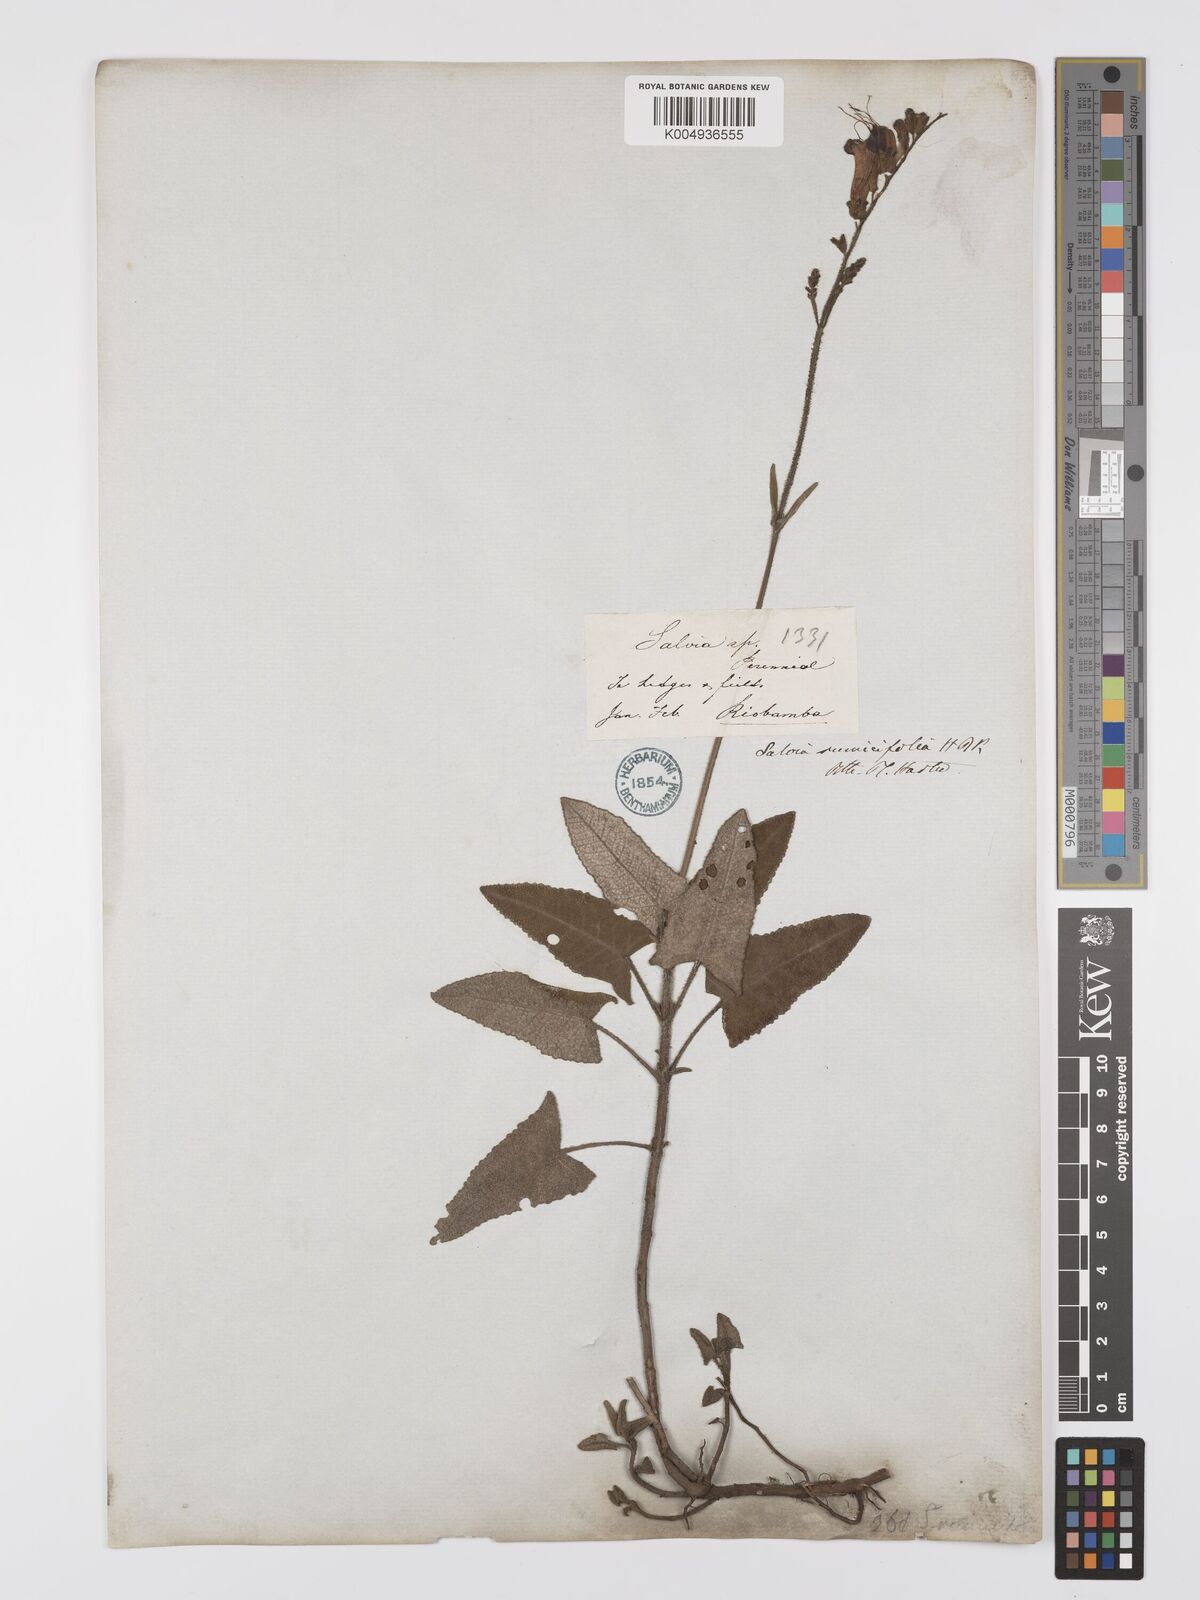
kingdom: Plantae
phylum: Tracheophyta
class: Magnoliopsida
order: Lamiales
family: Lamiaceae
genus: Salvia
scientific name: Salvia sagittata
